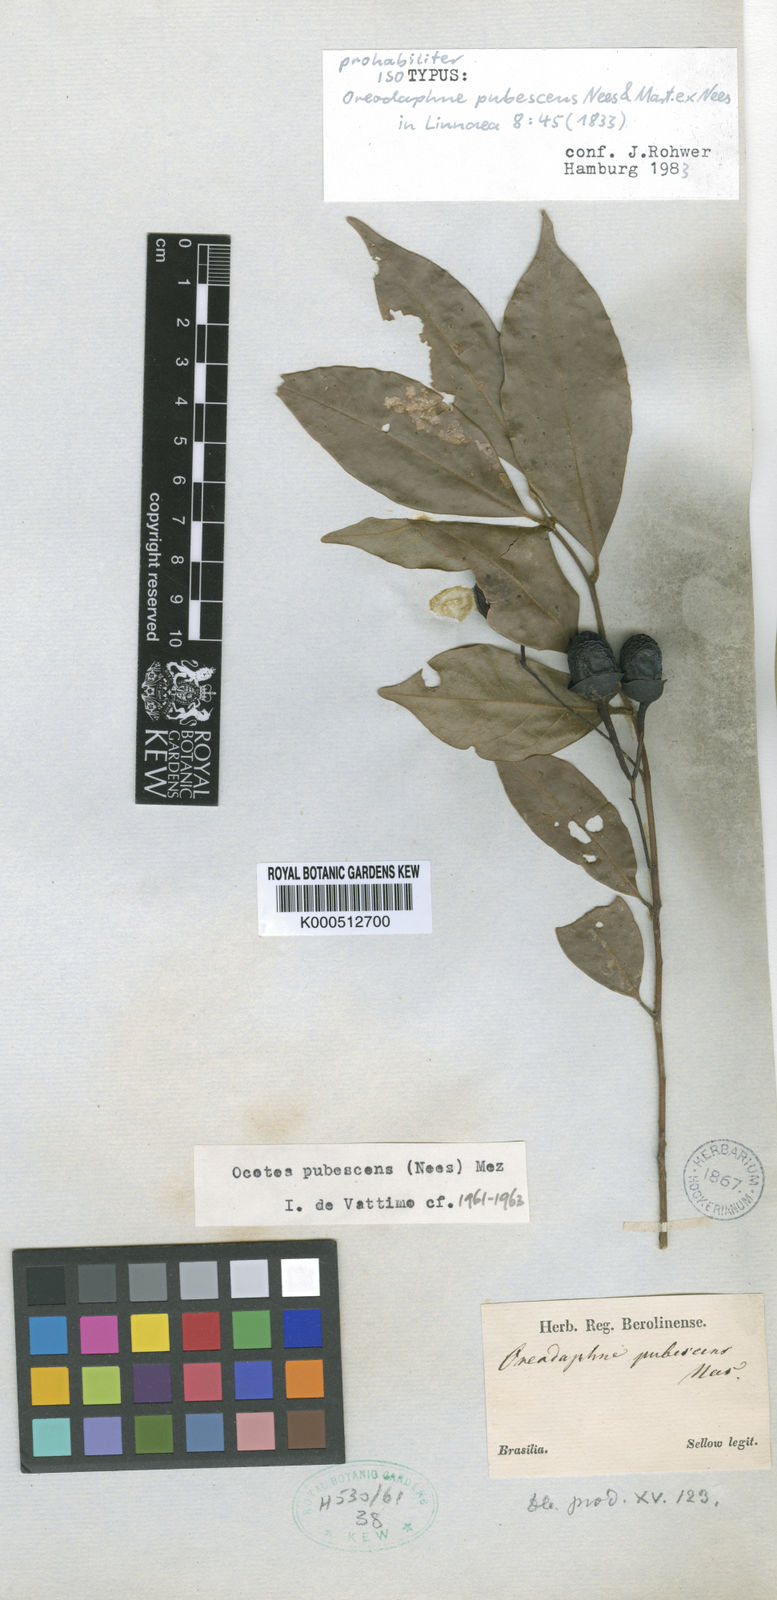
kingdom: Plantae
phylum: Tracheophyta
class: Magnoliopsida
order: Laurales
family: Lauraceae
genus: Ocotea
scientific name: Ocotea
